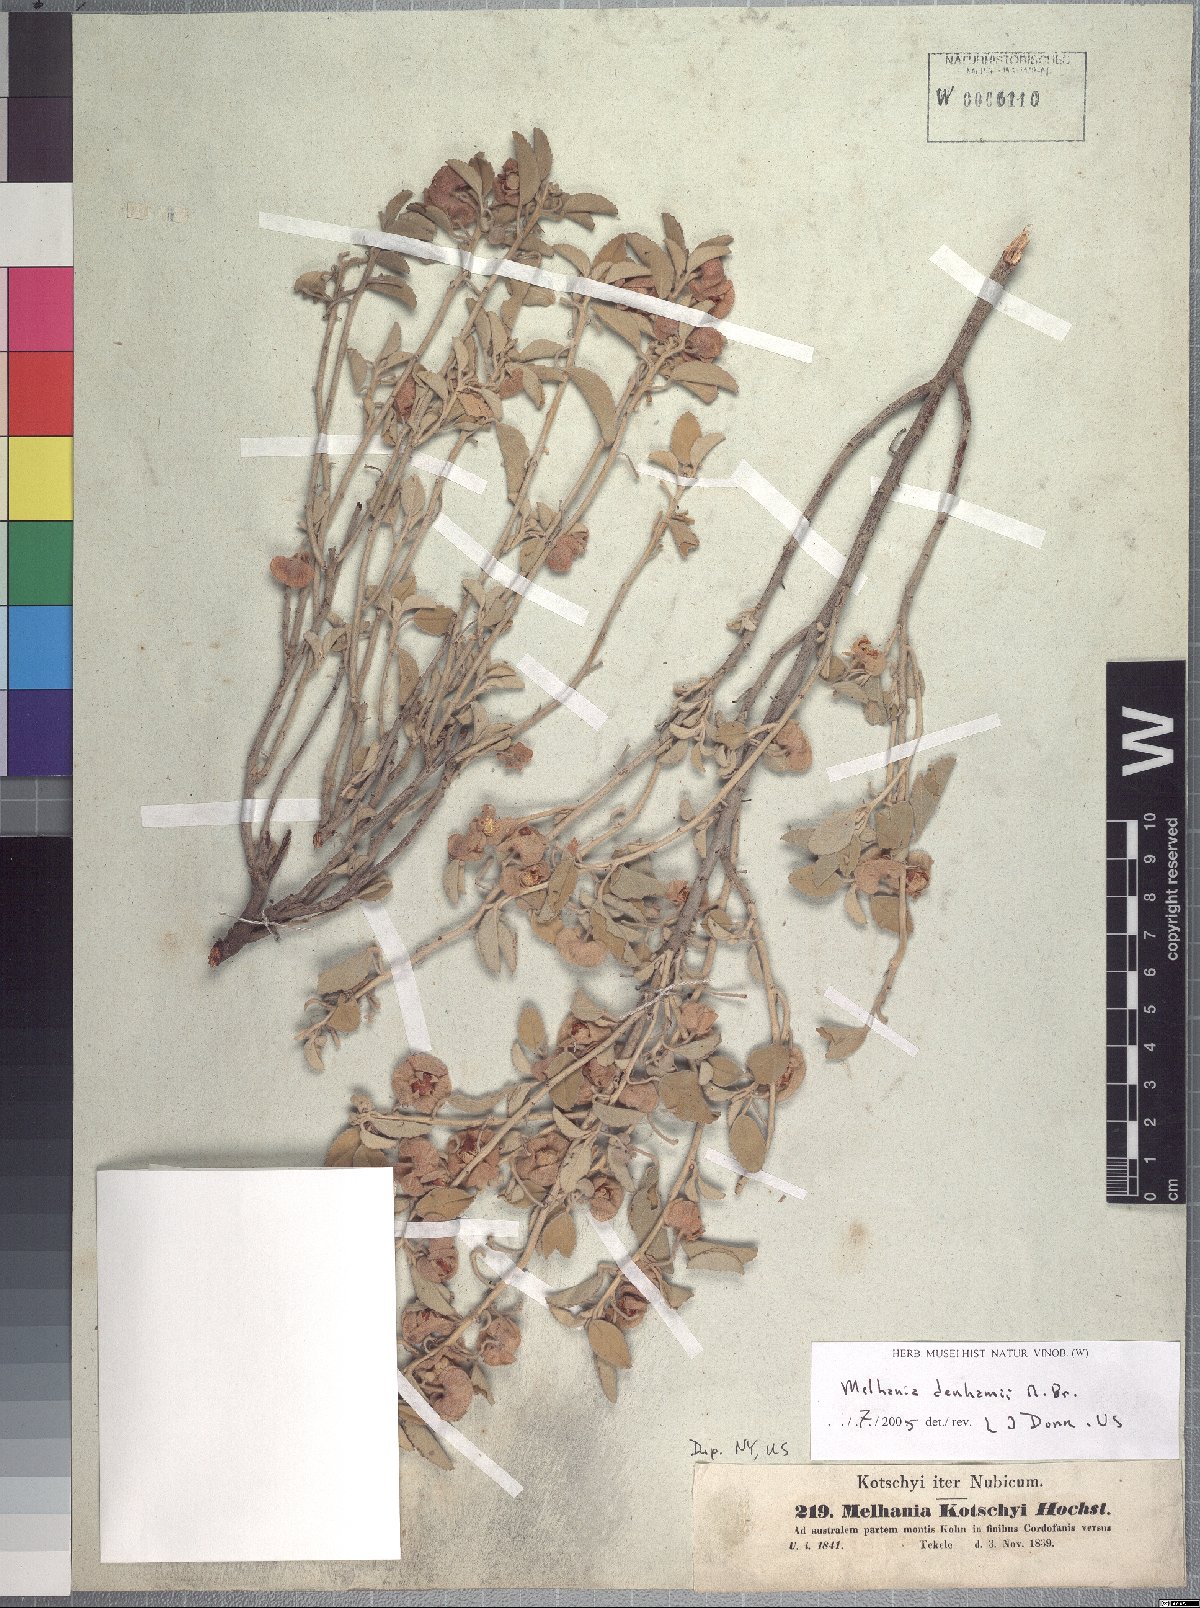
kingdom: Plantae
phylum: Tracheophyta
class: Magnoliopsida
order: Malvales
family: Malvaceae
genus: Melhania
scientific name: Melhania denhamii
